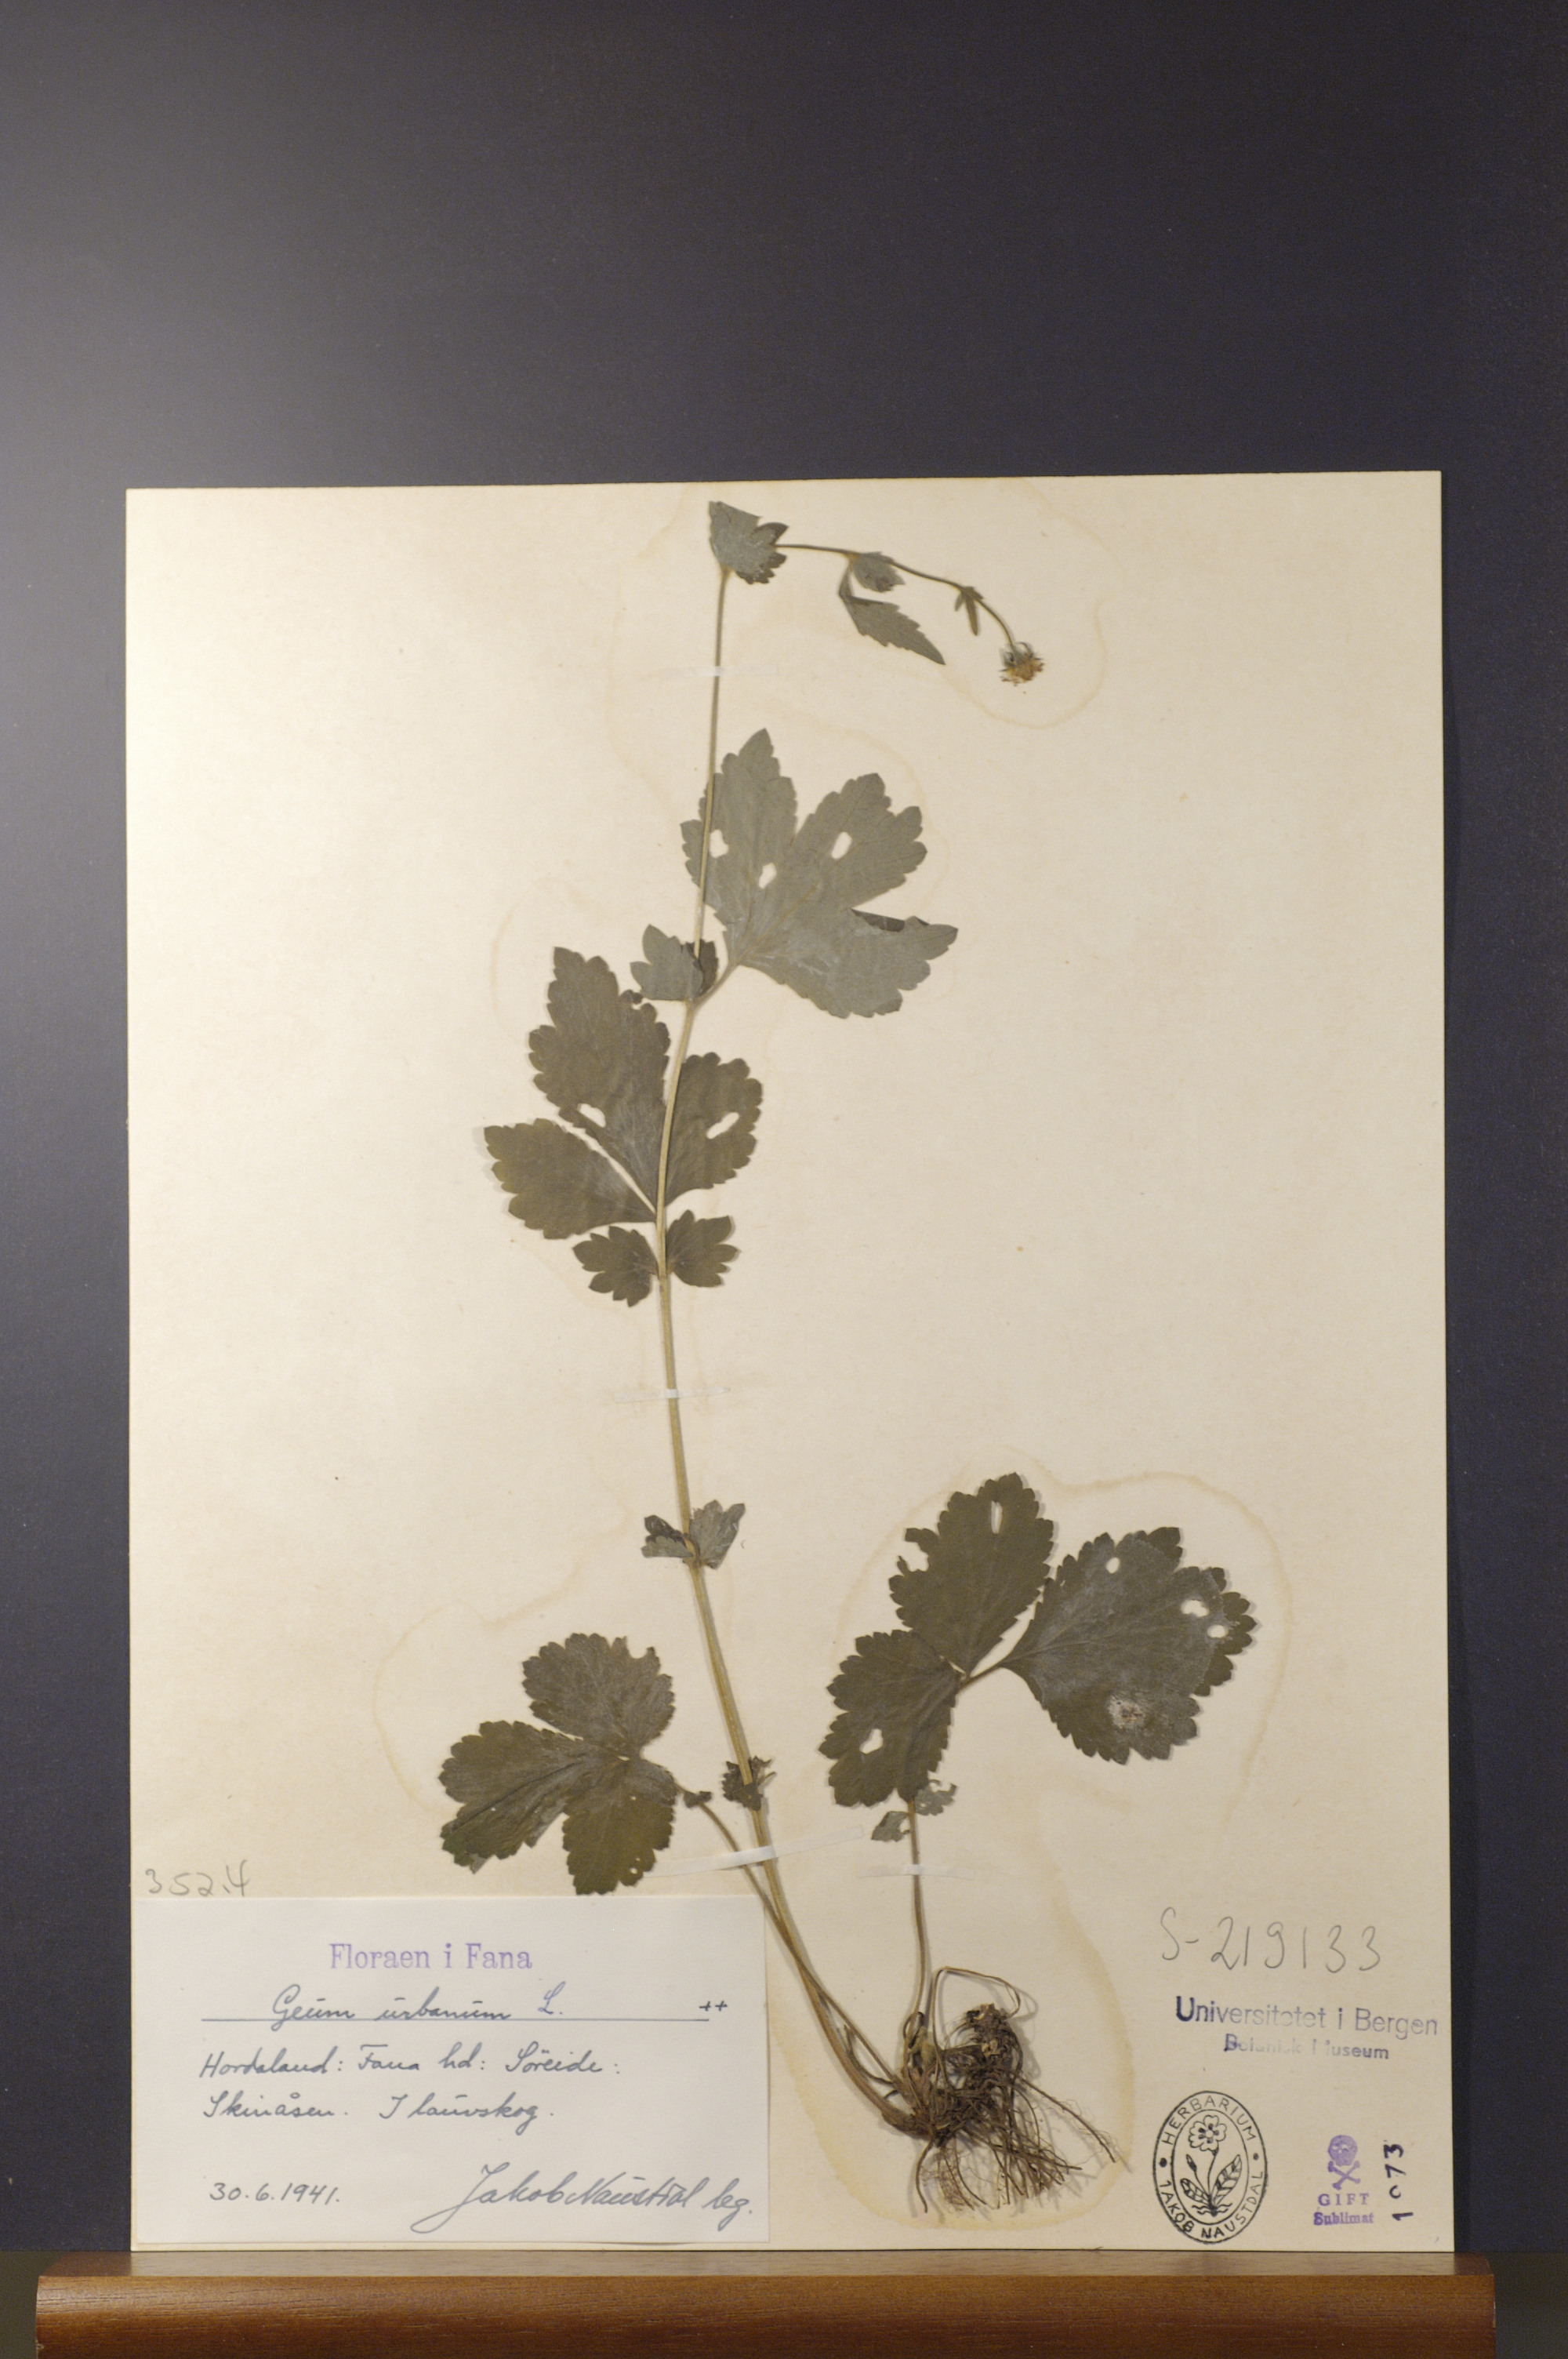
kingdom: Plantae
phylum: Tracheophyta
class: Magnoliopsida
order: Rosales
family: Rosaceae
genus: Geum
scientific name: Geum urbanum
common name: Wood avens
